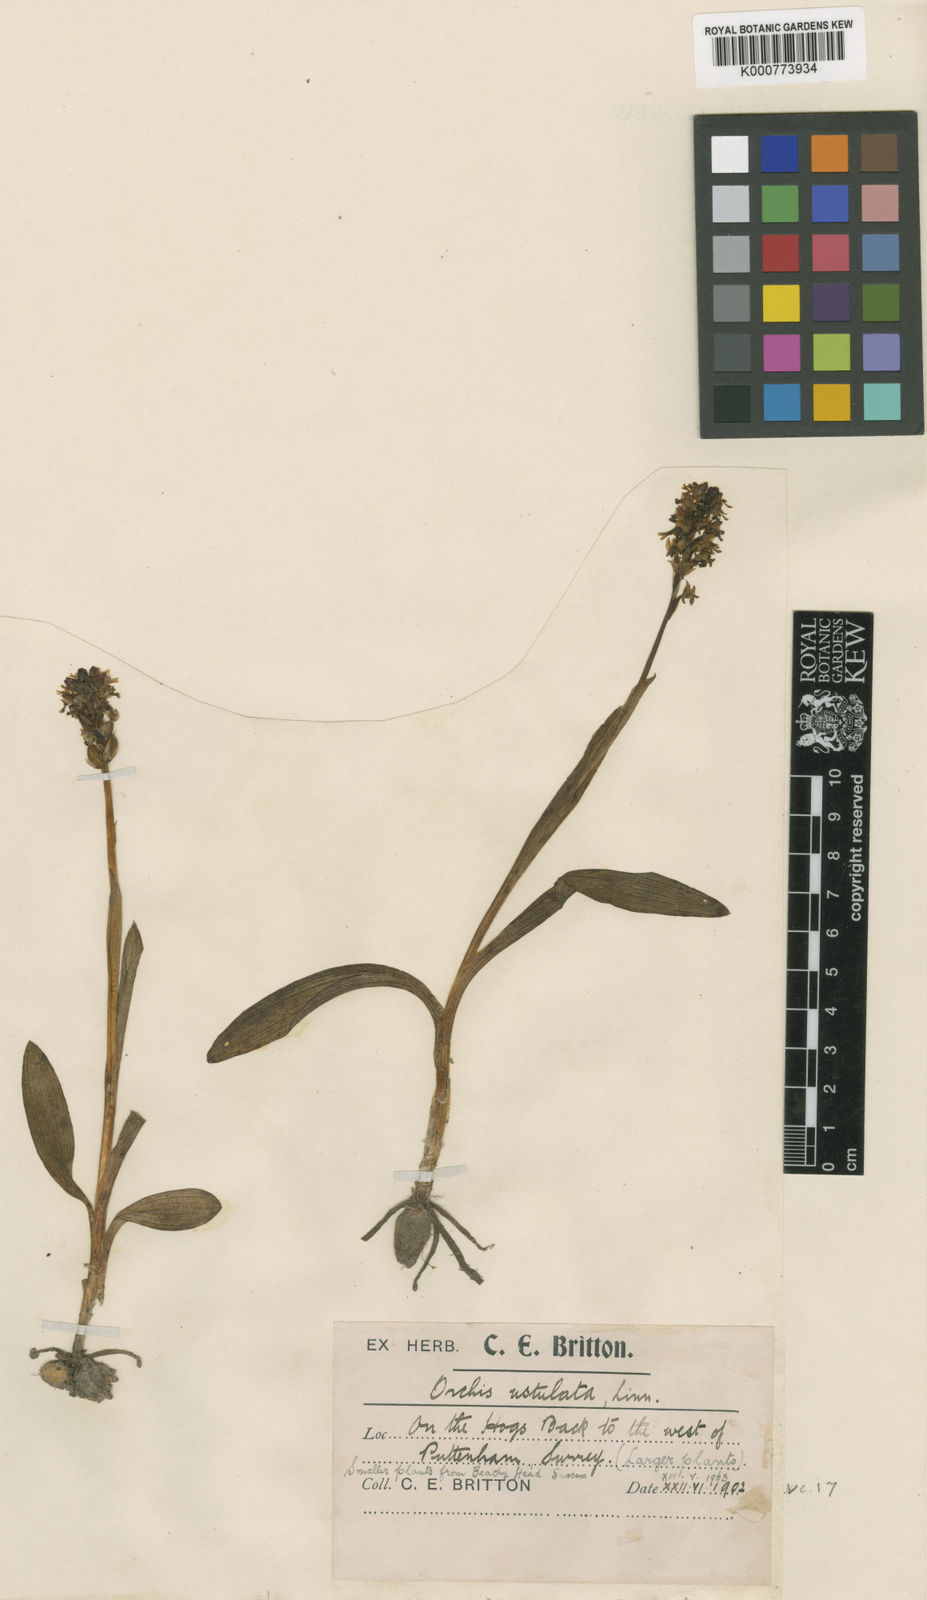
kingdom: Plantae
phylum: Tracheophyta
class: Liliopsida
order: Asparagales
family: Orchidaceae
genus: Neotinea
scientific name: Neotinea ustulata
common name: Burnt orchid
